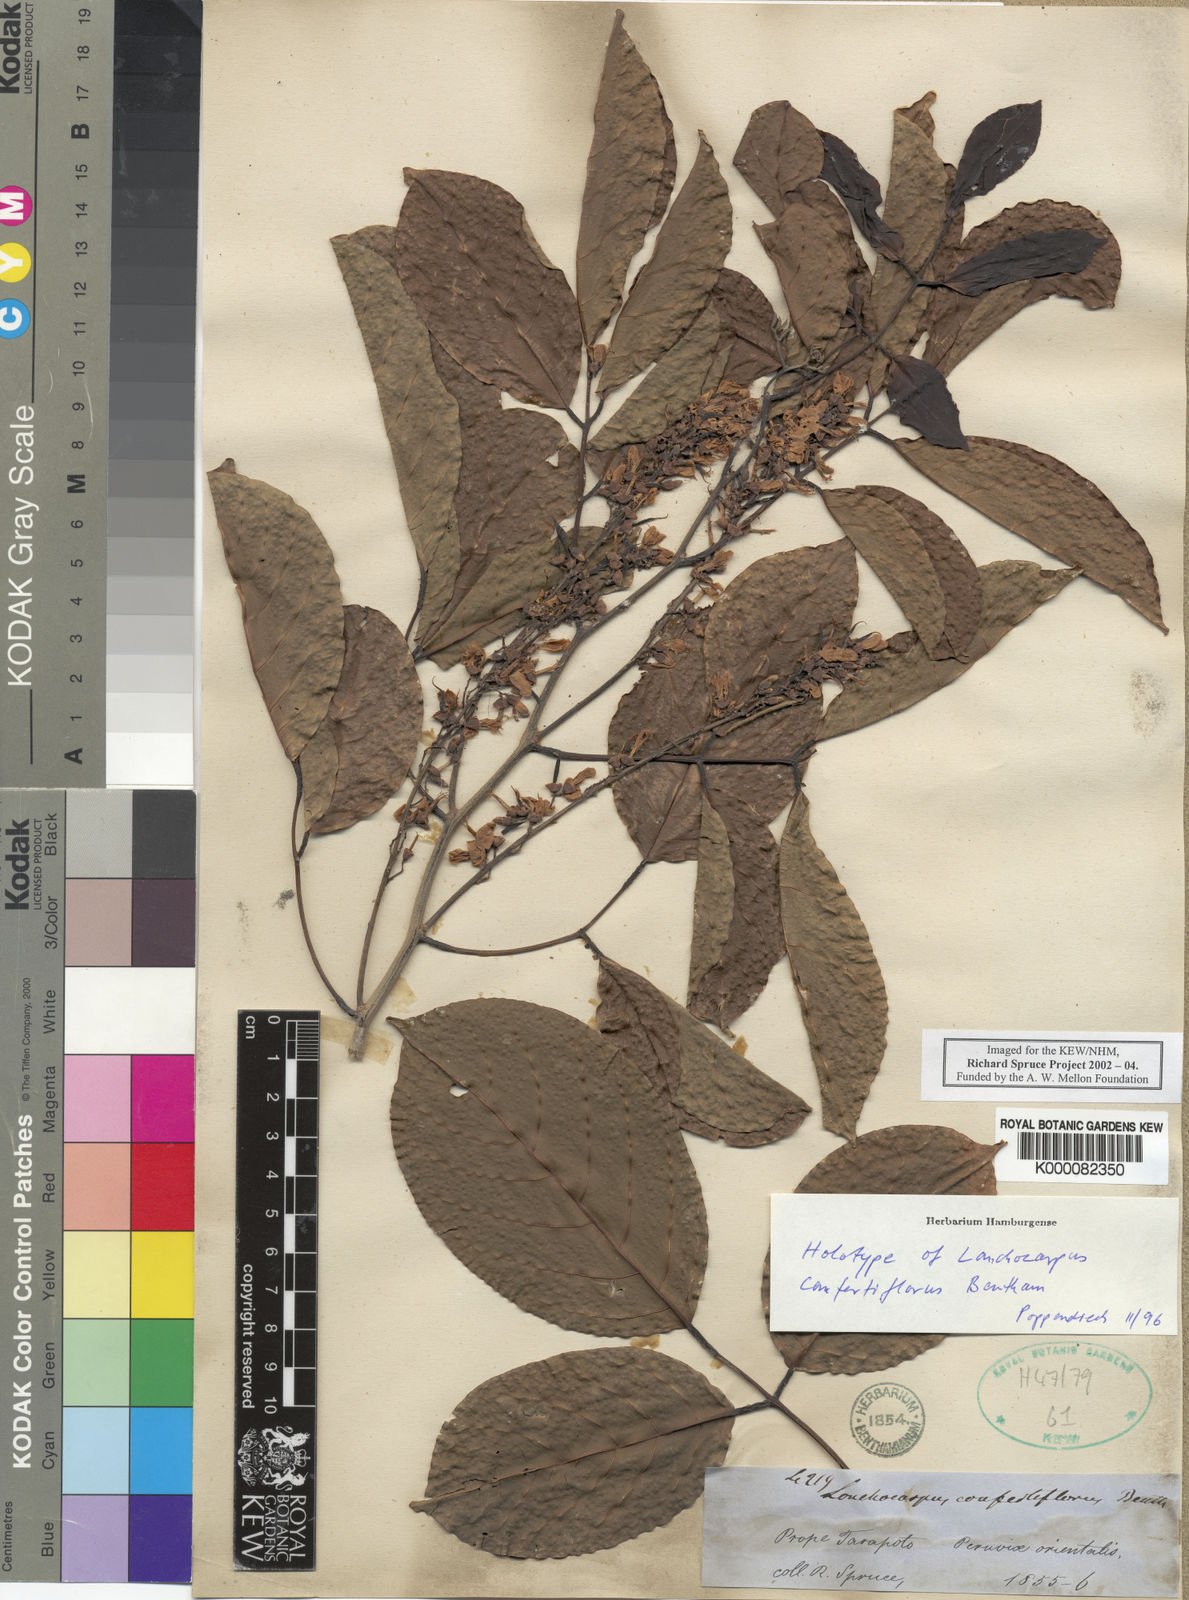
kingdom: Plantae
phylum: Tracheophyta
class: Magnoliopsida
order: Fabales
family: Fabaceae
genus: Dahlstedtia
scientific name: Dahlstedtia confertiflora
